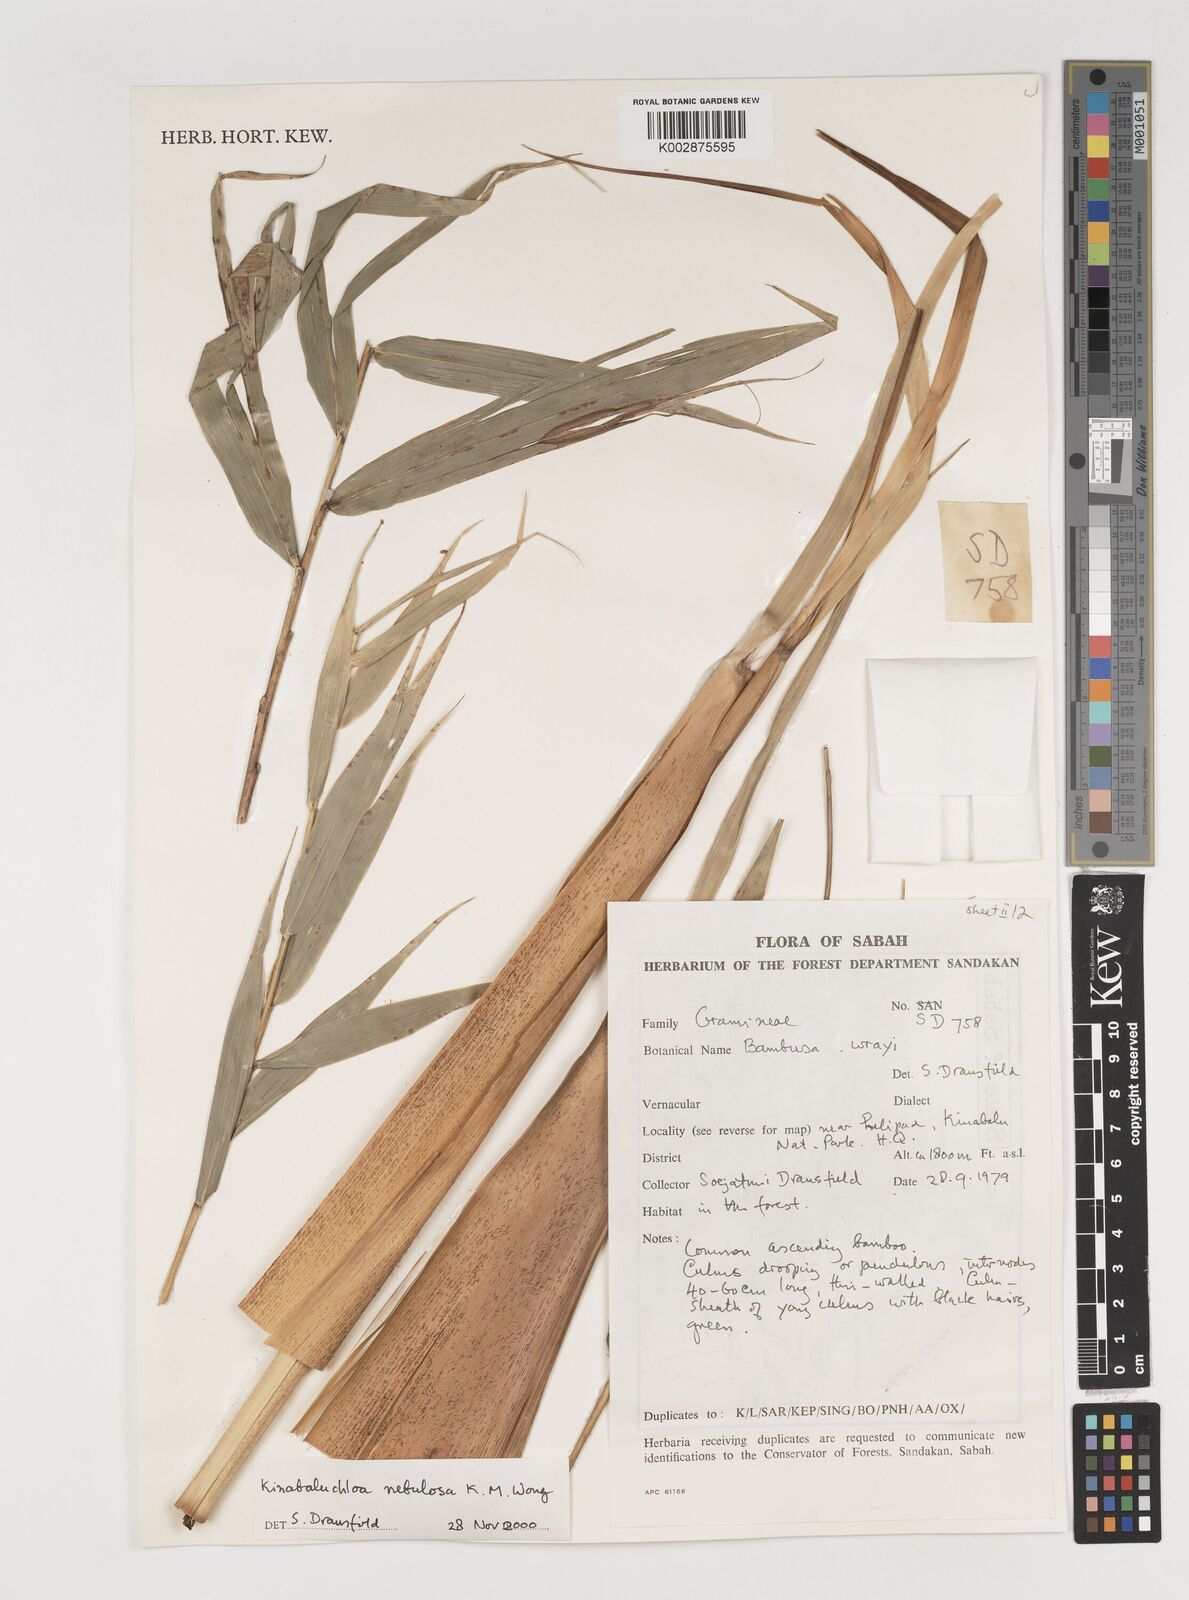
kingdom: Plantae
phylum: Tracheophyta
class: Liliopsida
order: Poales
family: Poaceae
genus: Kinabaluchloa
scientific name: Kinabaluchloa nebulosa
